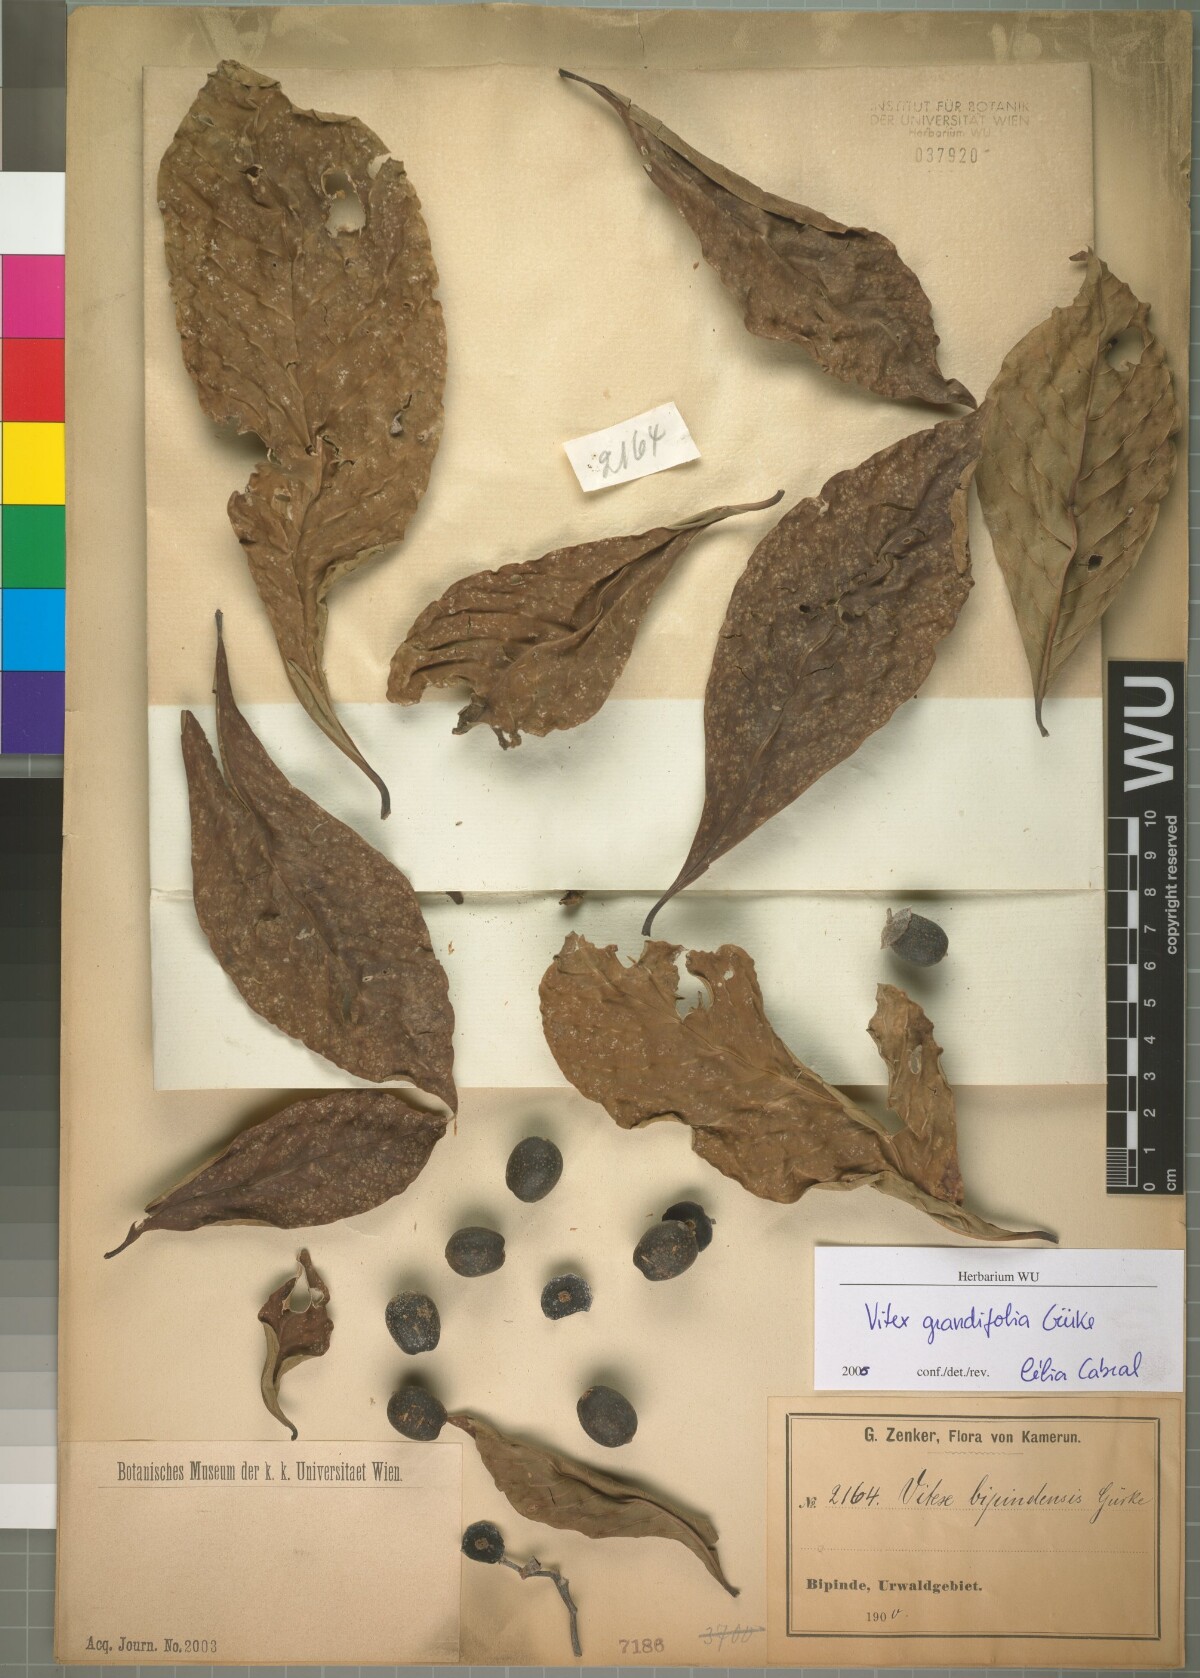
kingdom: Plantae
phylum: Tracheophyta
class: Magnoliopsida
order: Lamiales
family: Lamiaceae
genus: Vitex
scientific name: Vitex grandifolia
